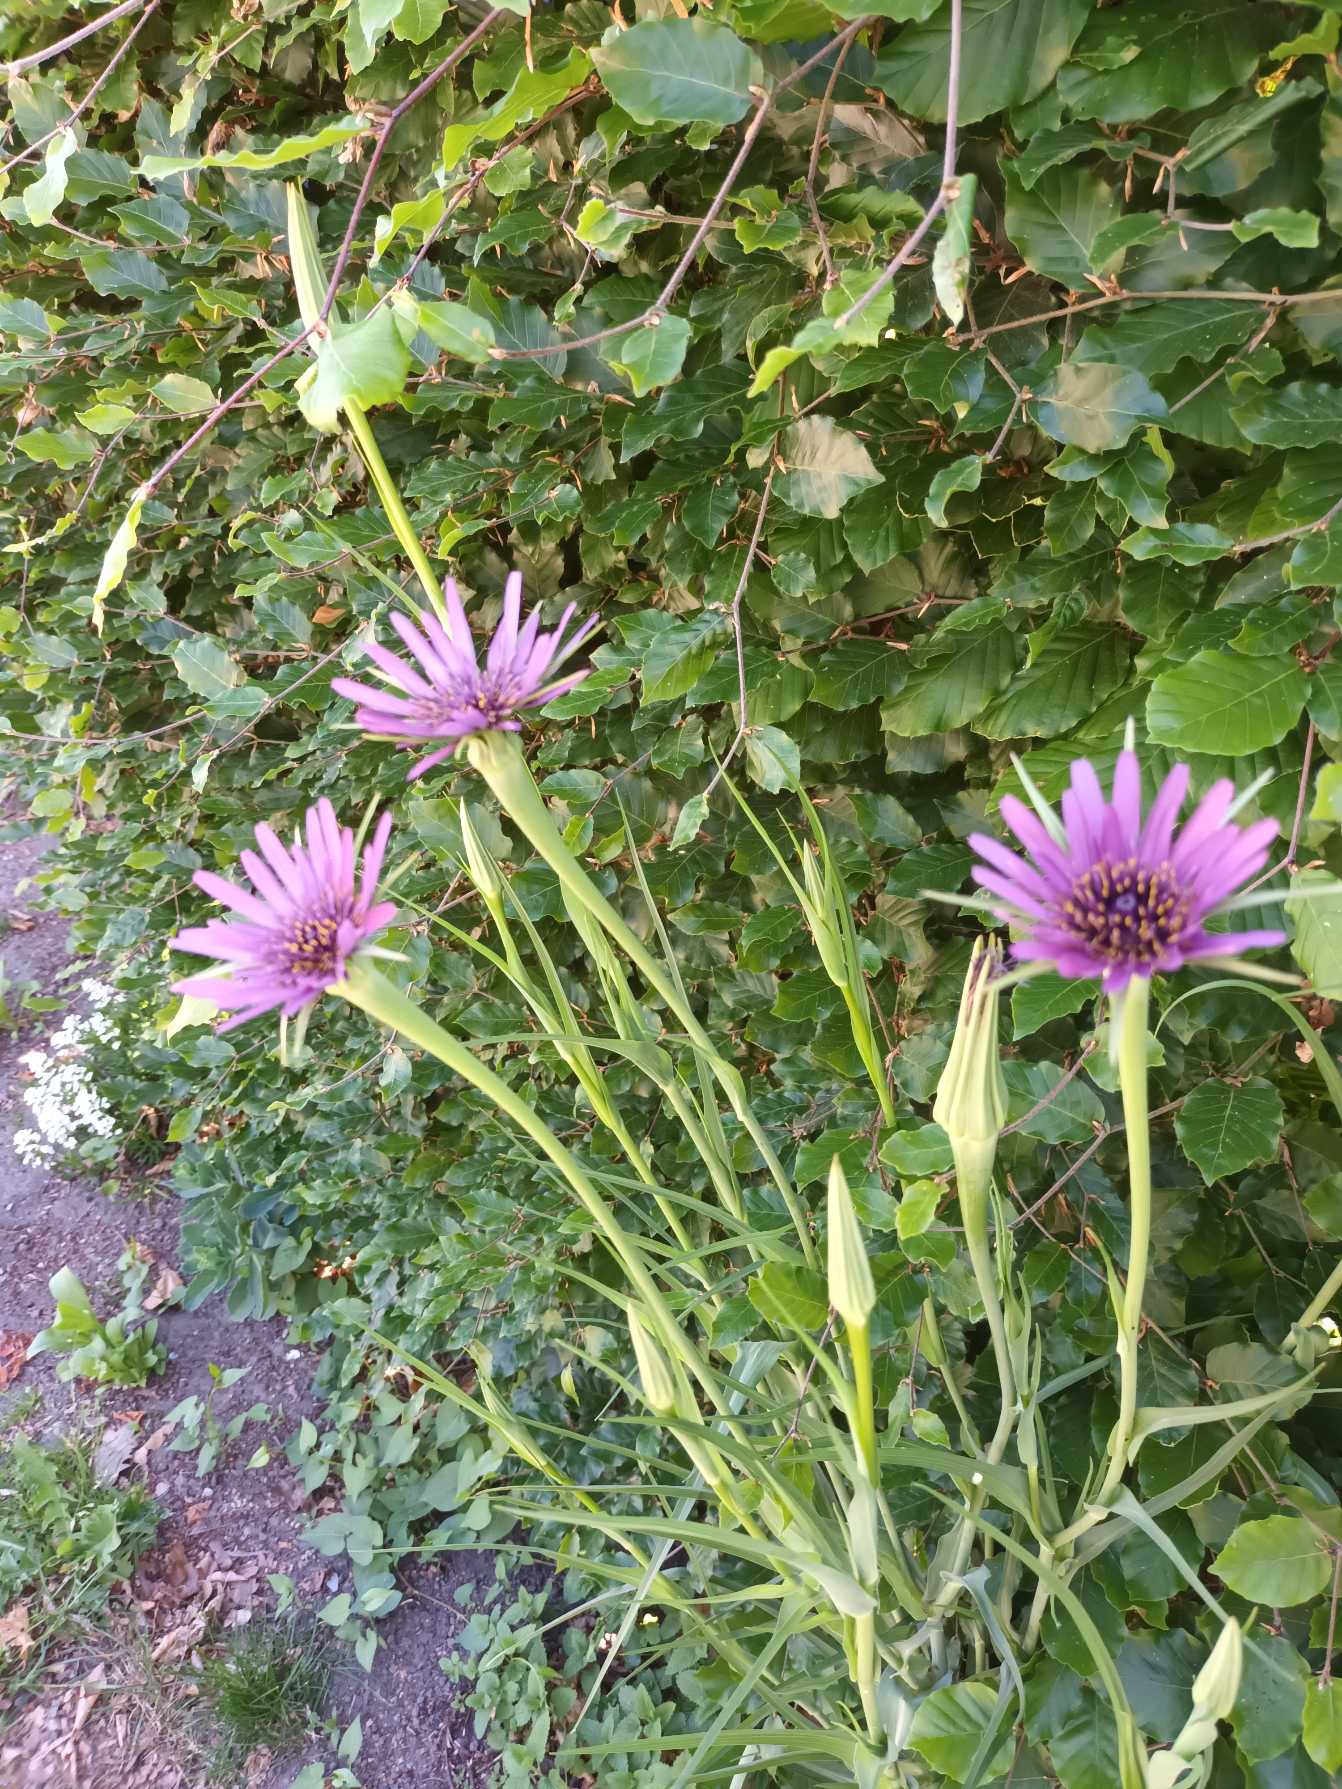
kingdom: Plantae
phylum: Tracheophyta
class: Magnoliopsida
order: Asterales
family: Asteraceae
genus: Tragopogon
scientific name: Tragopogon porrifolius
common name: Havrerod
